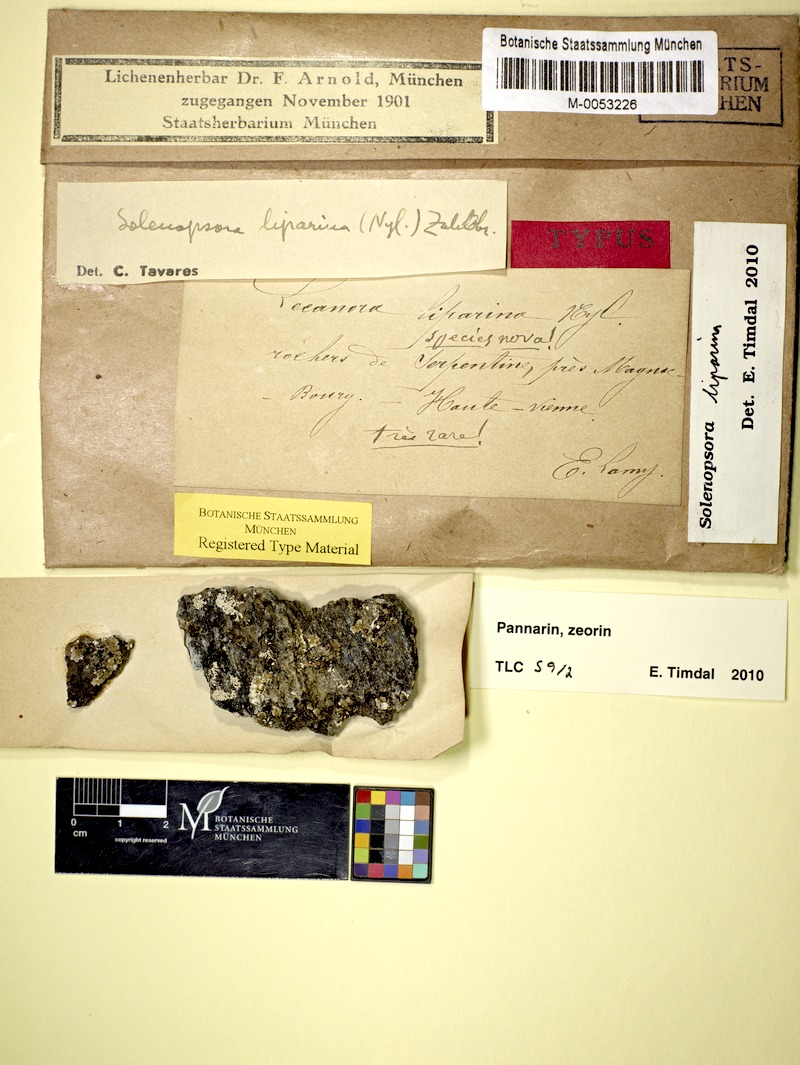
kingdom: Fungi
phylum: Ascomycota
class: Lecanoromycetes
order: Lecanorales
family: Catillariaceae
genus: Solenopsora
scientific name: Solenopsora liparina
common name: Serpentine solenopsora
